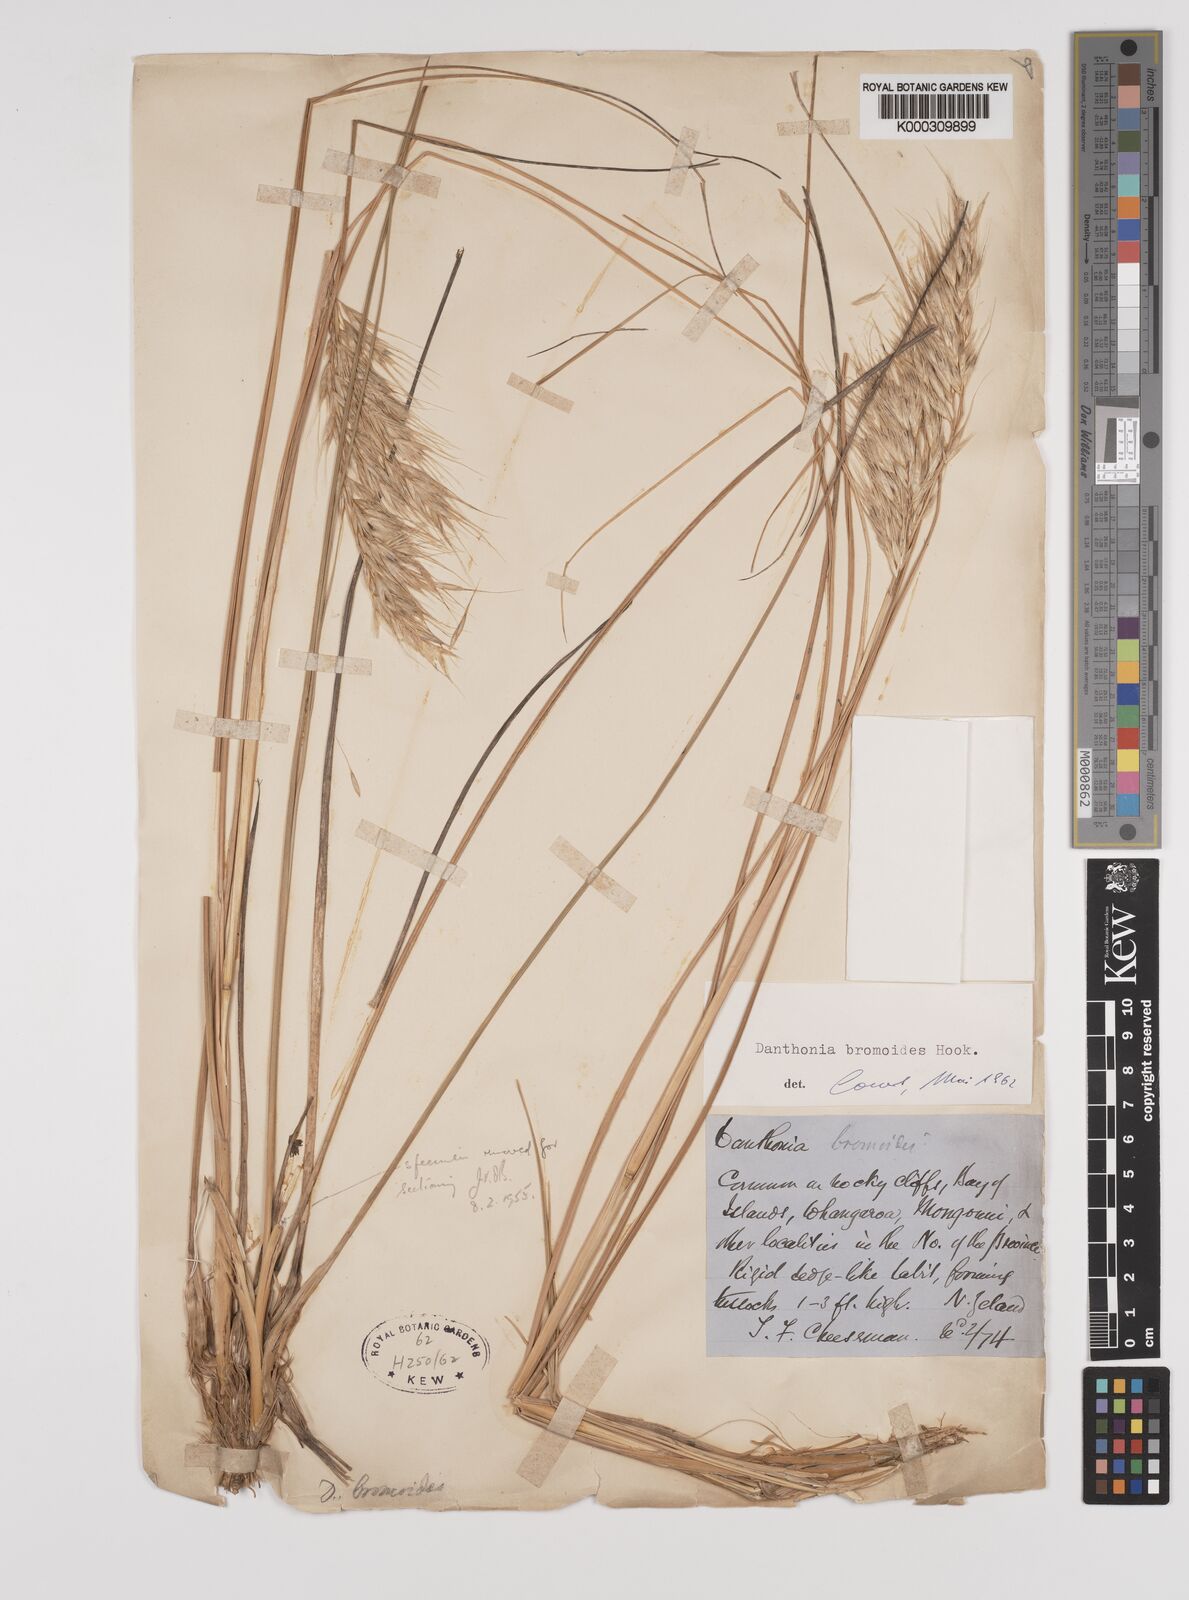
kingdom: Plantae
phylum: Tracheophyta
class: Liliopsida
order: Poales
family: Poaceae
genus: Chionochloa
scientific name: Chionochloa bromoides
